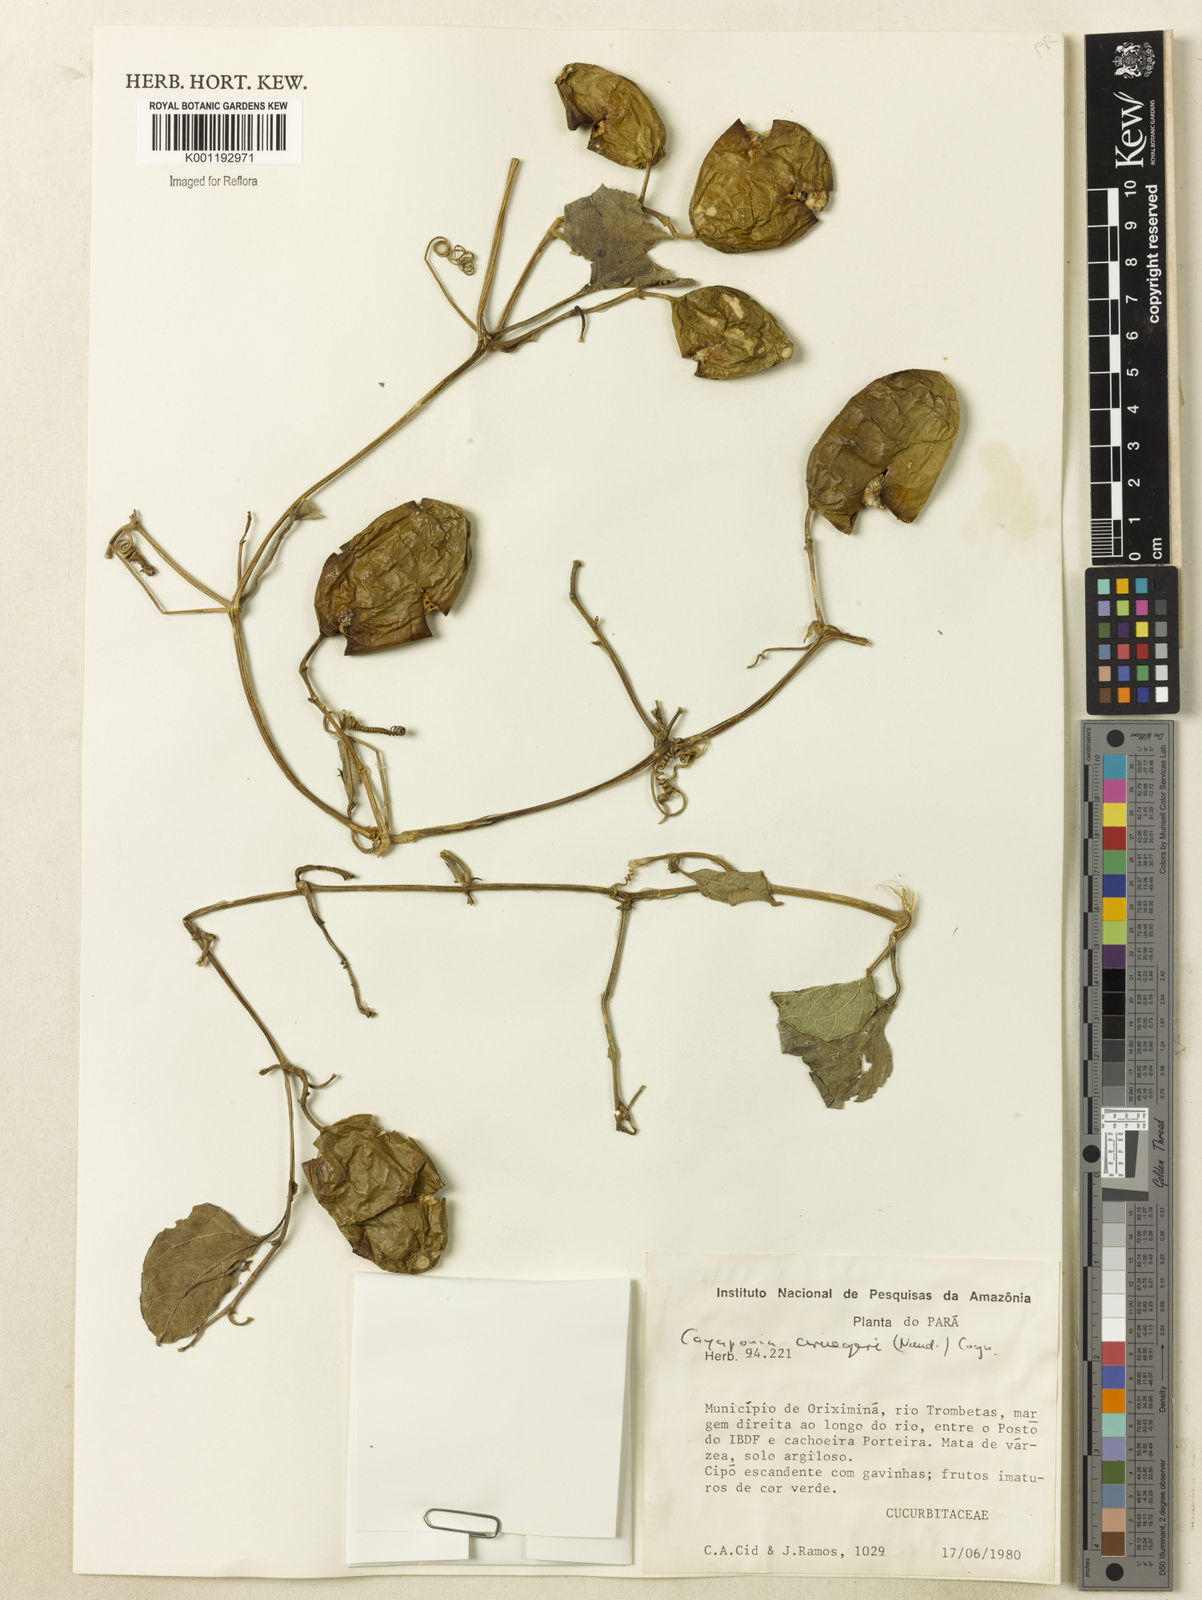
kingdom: Plantae
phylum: Tracheophyta
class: Magnoliopsida
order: Cucurbitales
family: Cucurbitaceae
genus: Cayaponia
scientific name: Cayaponia cruegeri
